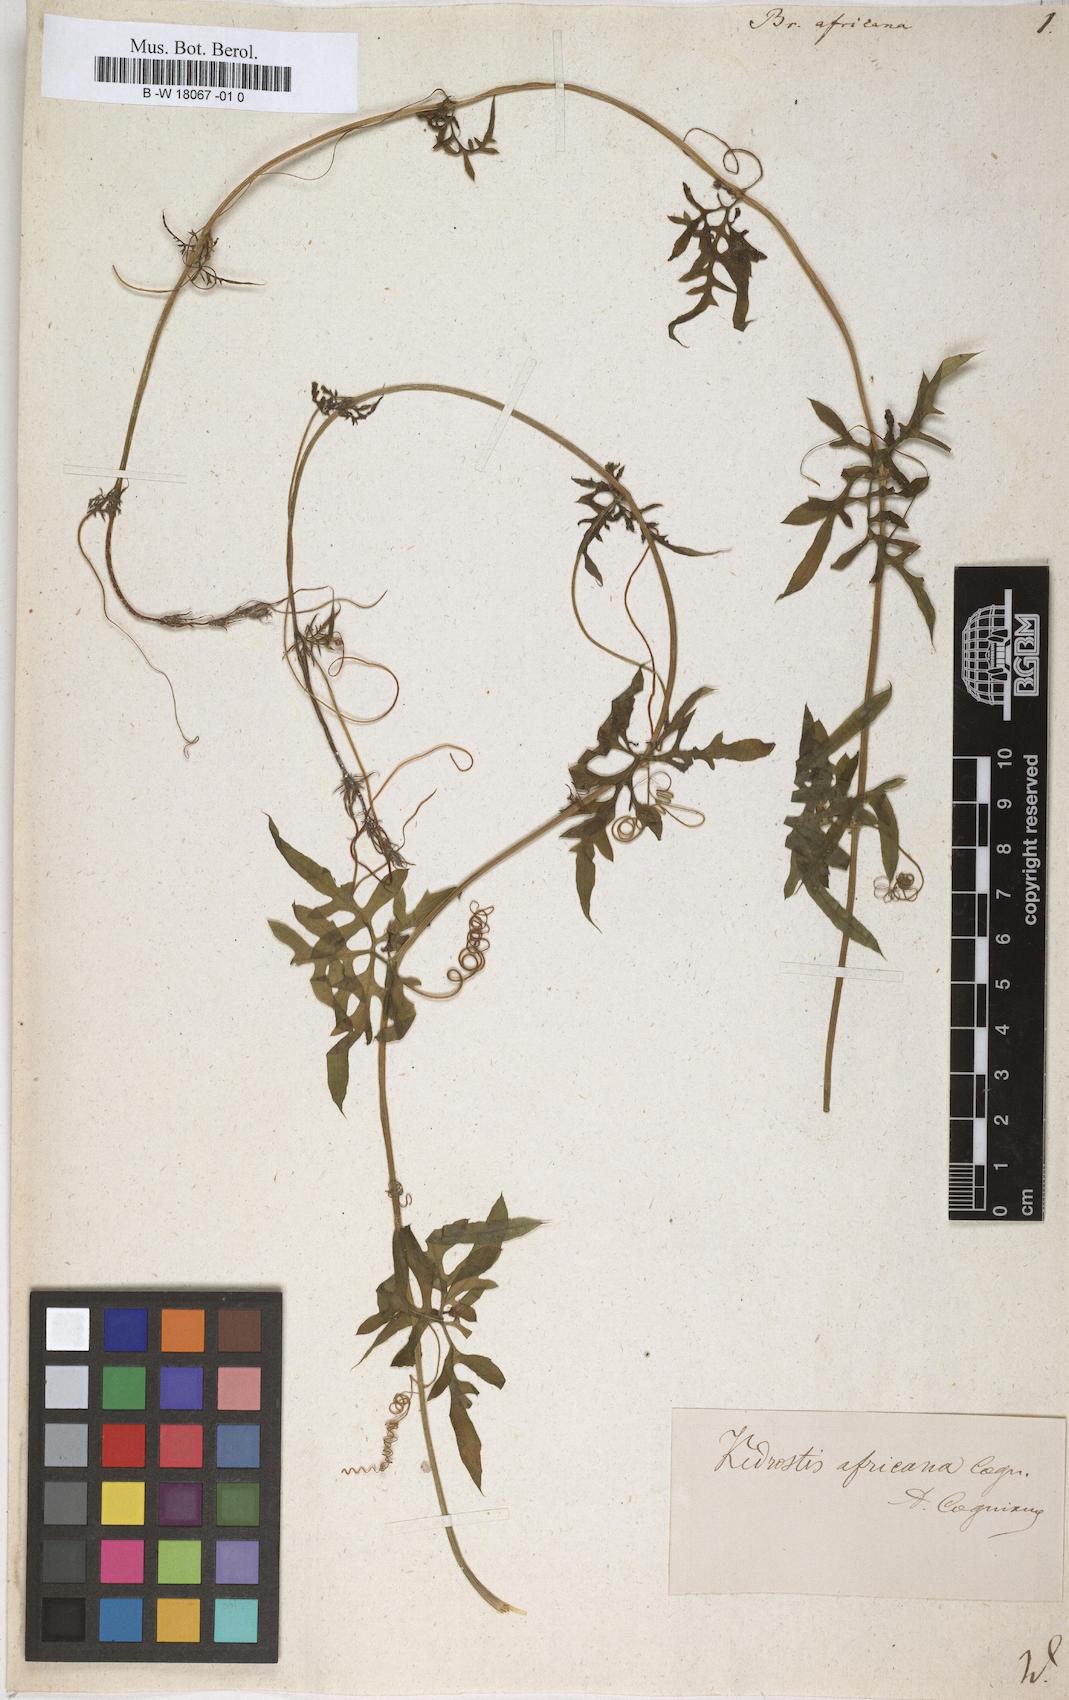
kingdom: Plantae
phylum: Tracheophyta
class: Magnoliopsida
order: Cucurbitales
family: Cucurbitaceae
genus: Bryonia
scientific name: Bryonia africana
